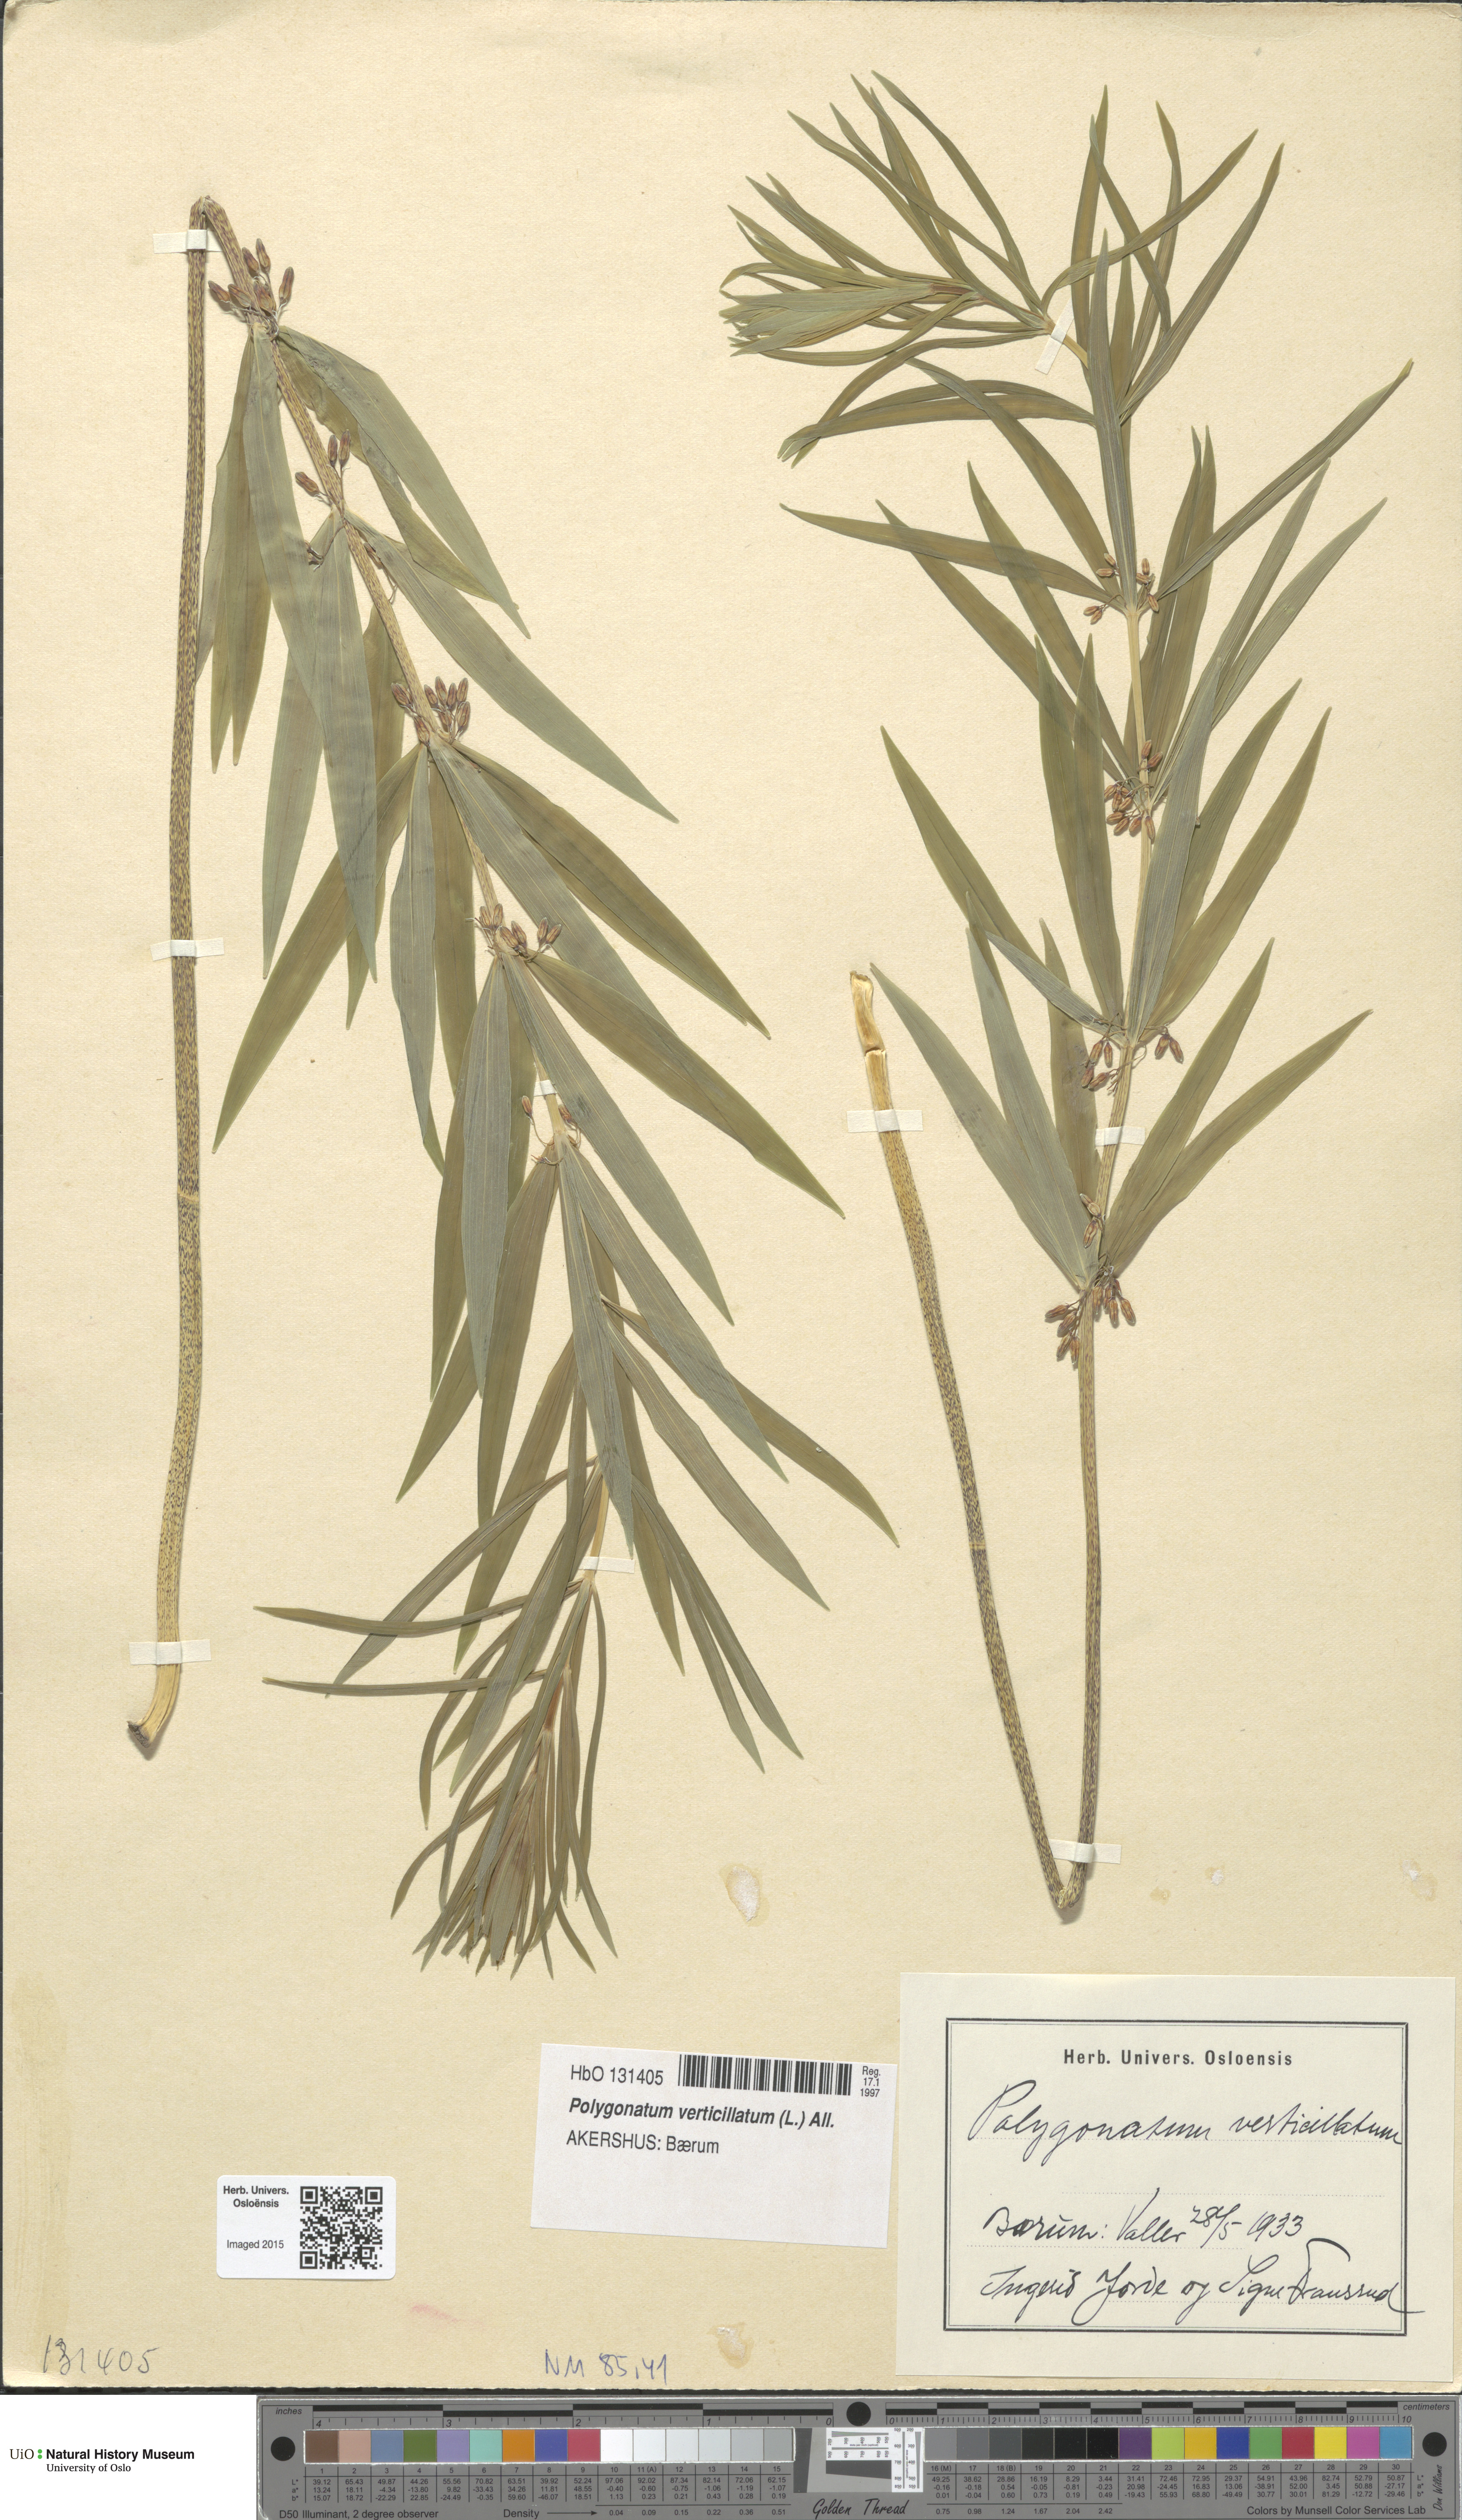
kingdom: Plantae
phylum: Tracheophyta
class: Liliopsida
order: Asparagales
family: Asparagaceae
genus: Polygonatum
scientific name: Polygonatum verticillatum
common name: Whorled solomon's-seal
